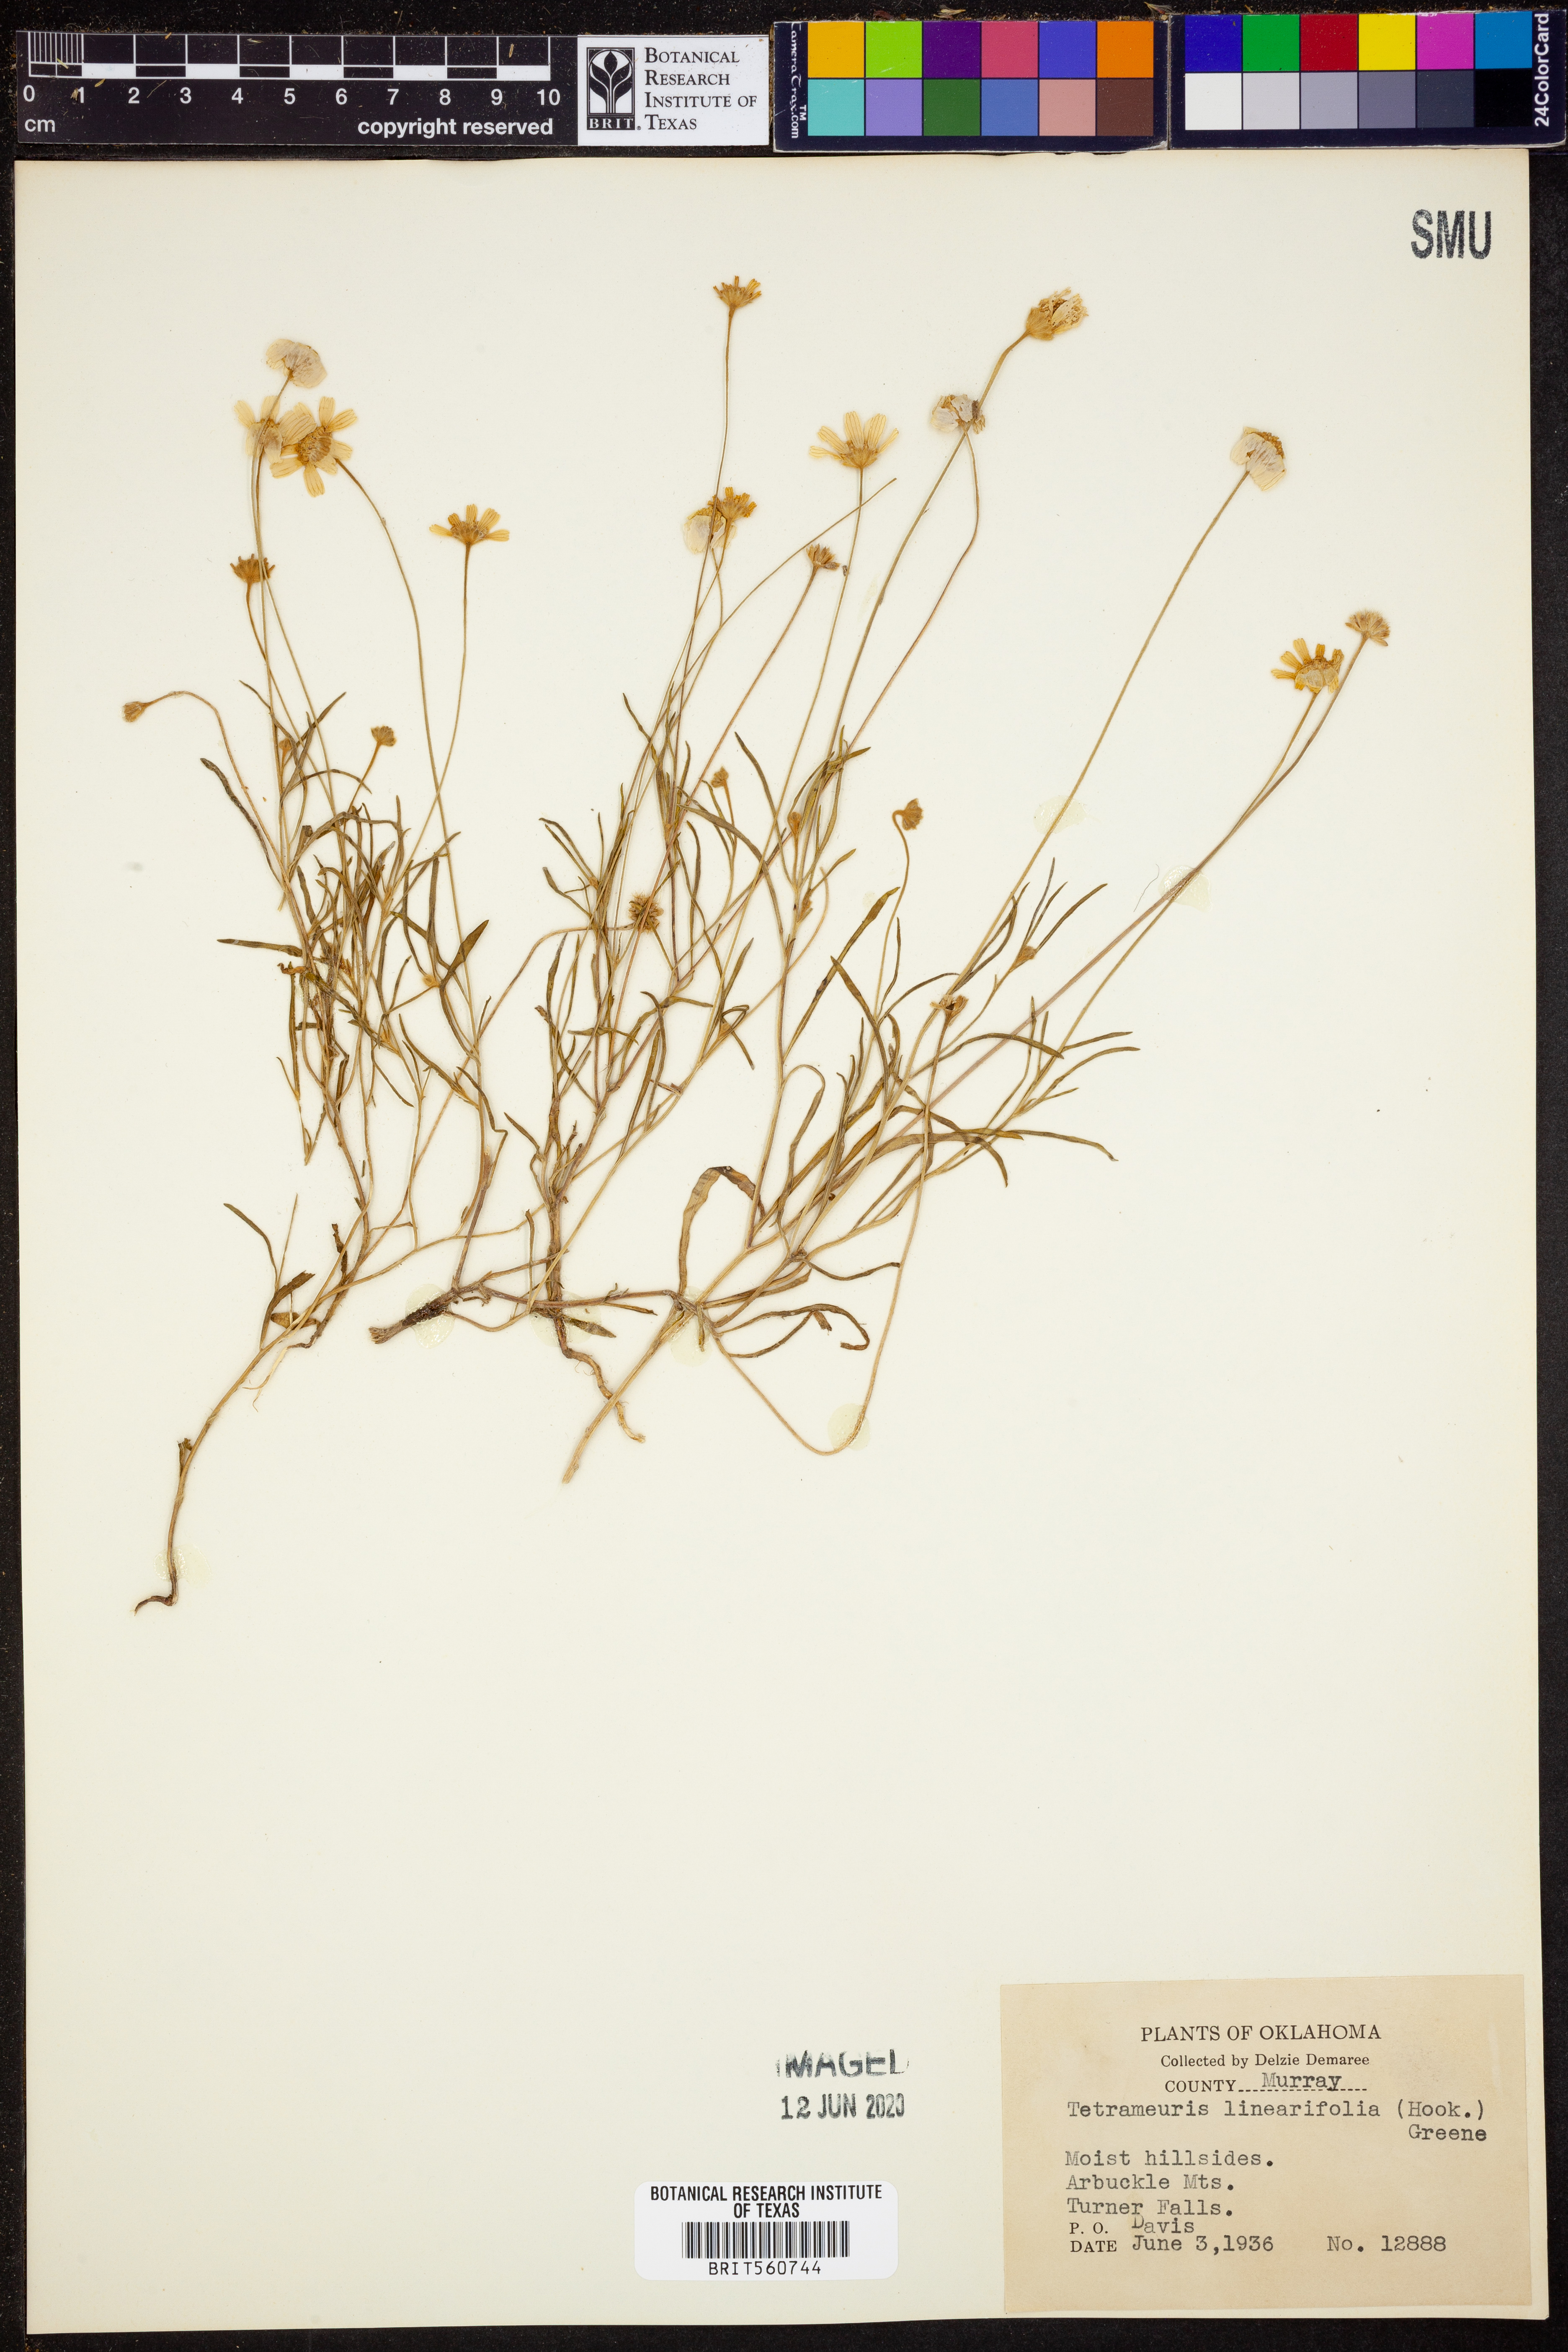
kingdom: Plantae
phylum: Tracheophyta
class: Magnoliopsida
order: Asterales
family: Asteraceae
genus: Tetraneuris
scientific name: Tetraneuris linearifolia
